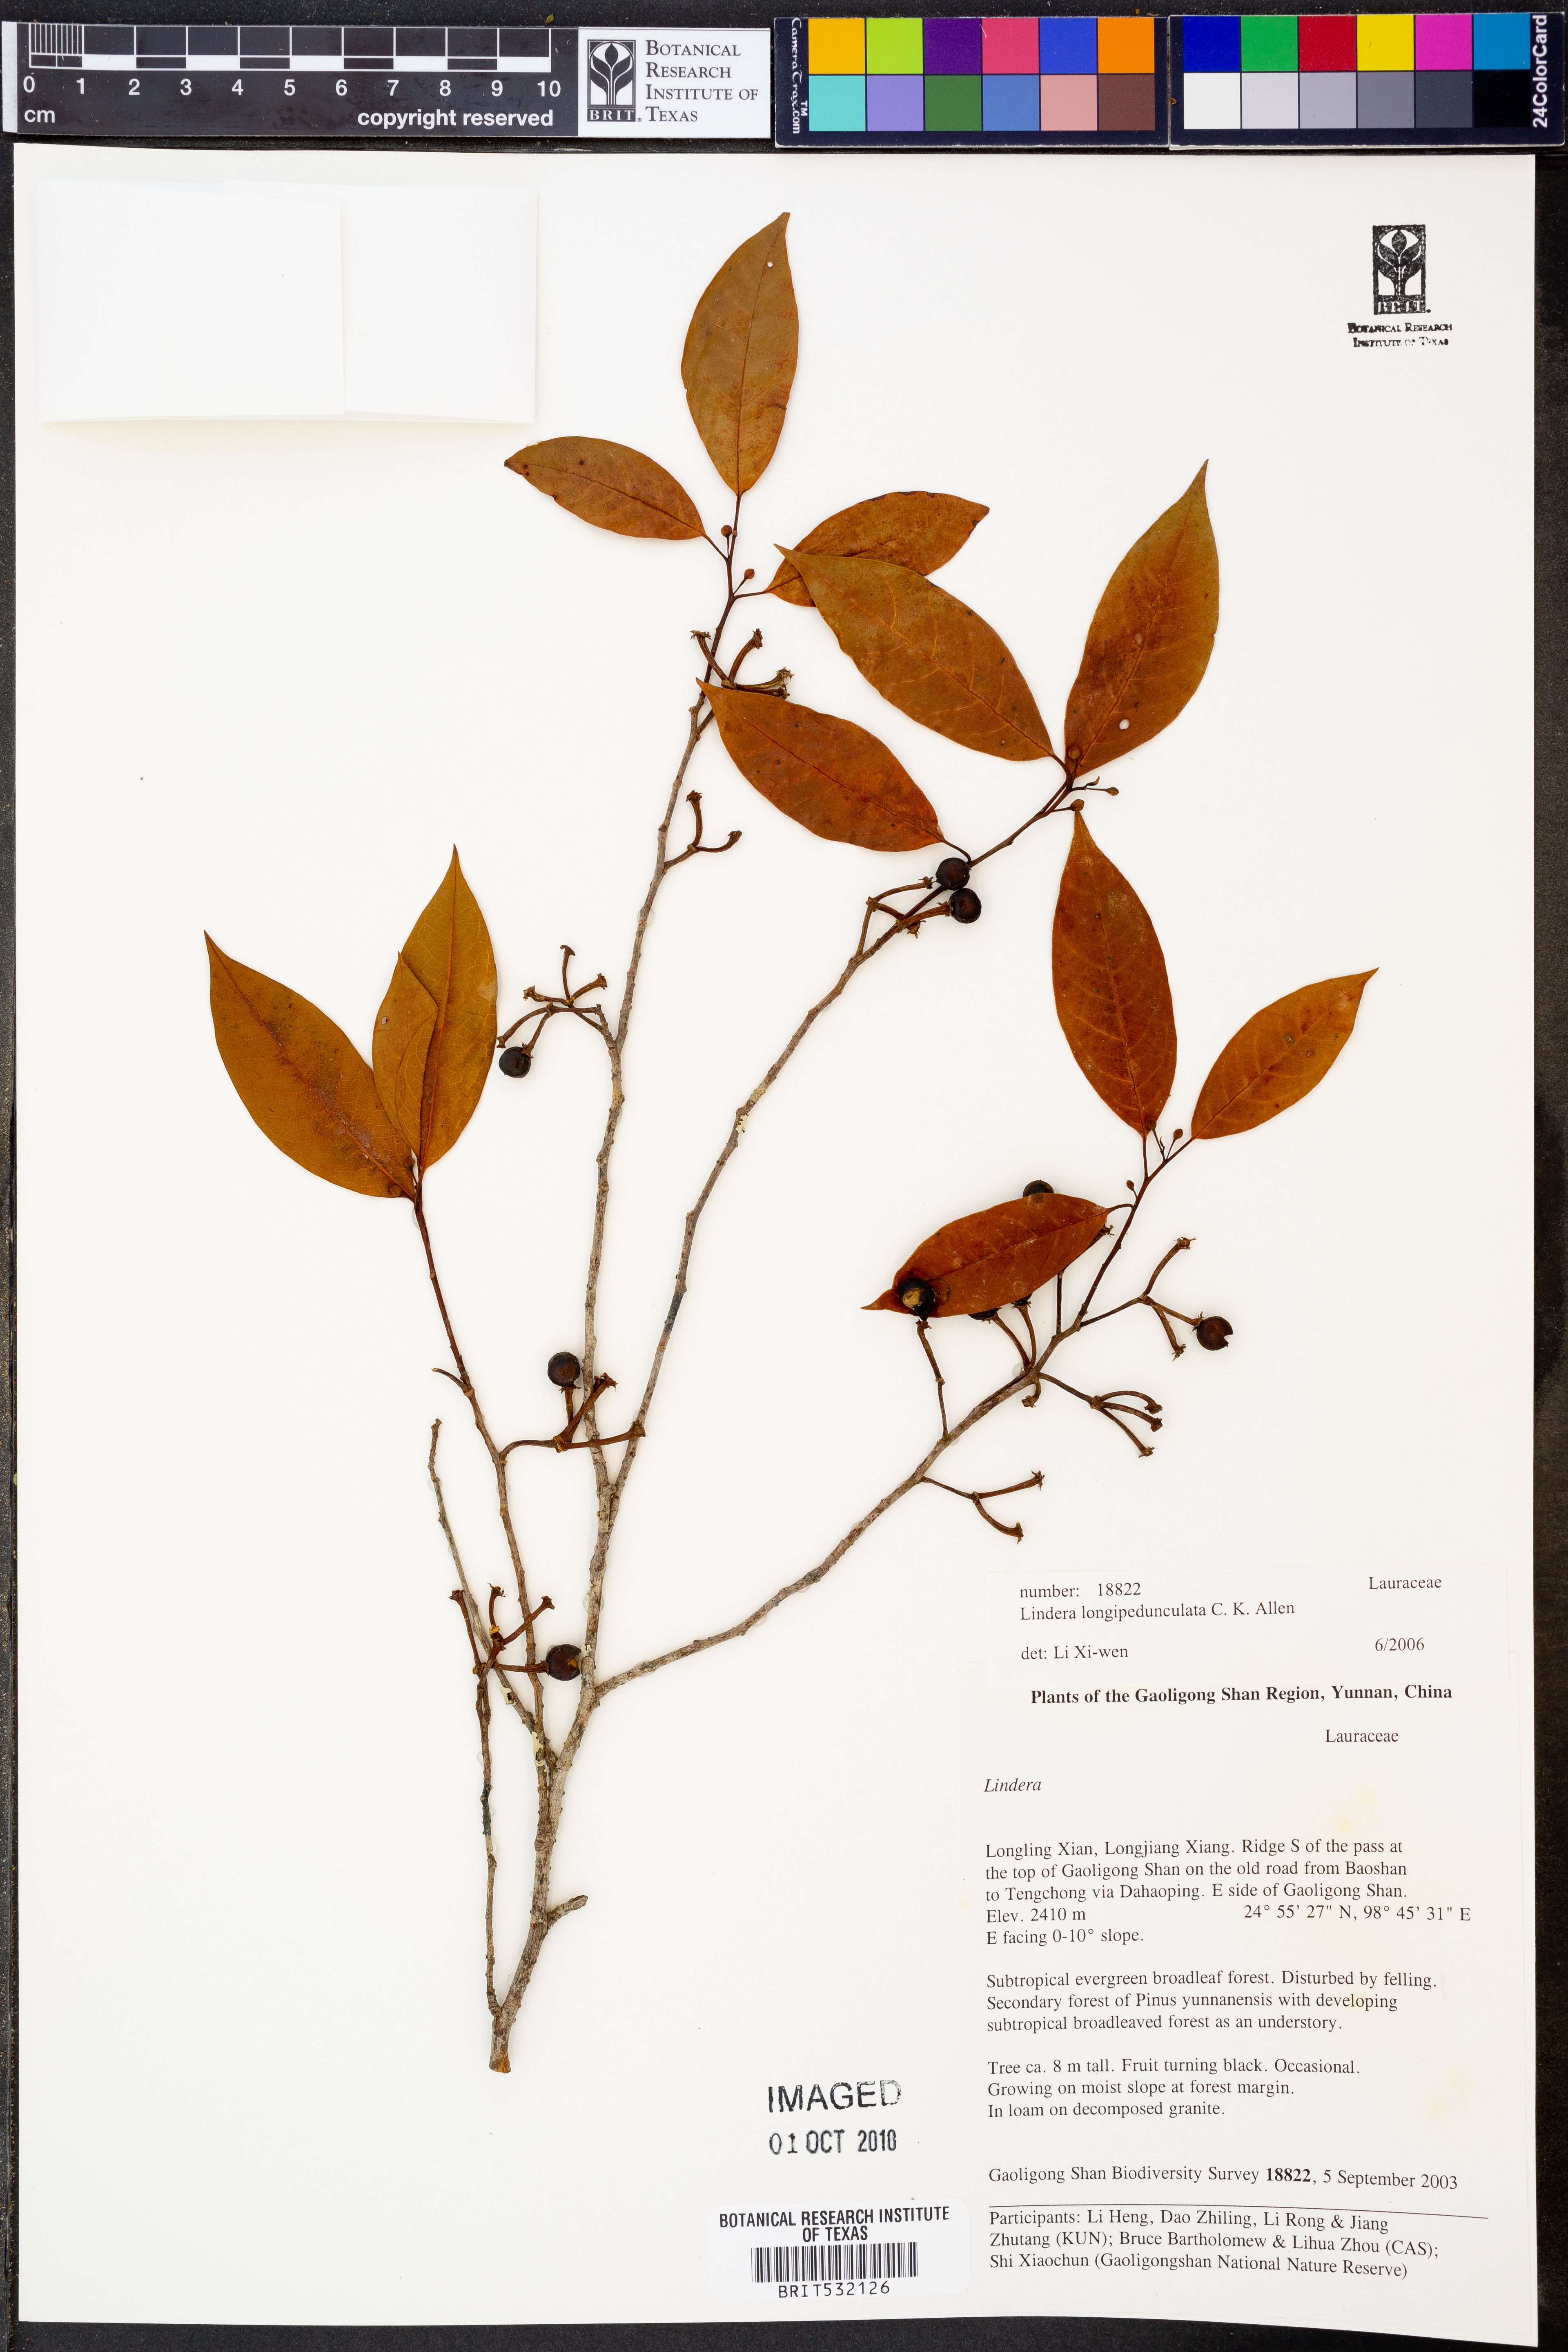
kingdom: Plantae
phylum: Tracheophyta
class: Magnoliopsida
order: Laurales
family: Lauraceae
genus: Lindera
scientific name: Lindera longipedunculata
